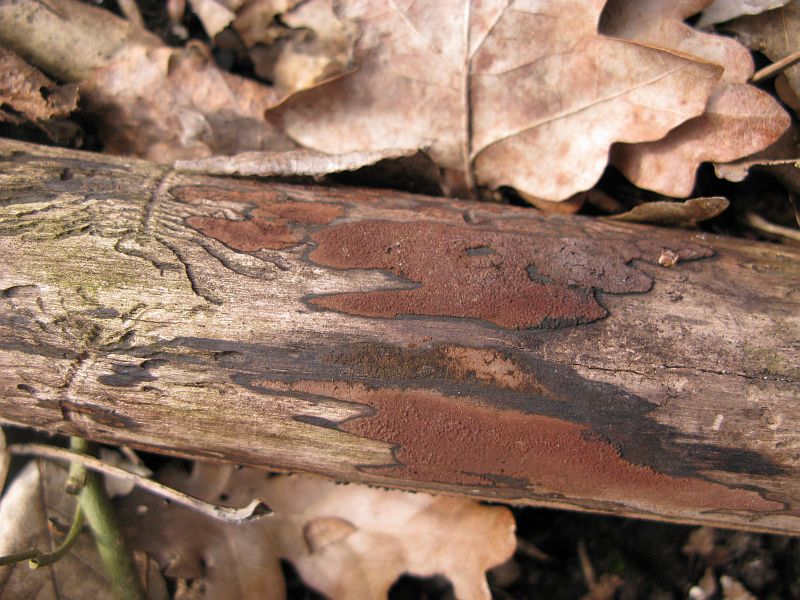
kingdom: Fungi
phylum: Ascomycota
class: Sordariomycetes
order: Xylariales
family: Hypoxylaceae
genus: Hypoxylon
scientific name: Hypoxylon petriniae
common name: nedsænket kulbær
